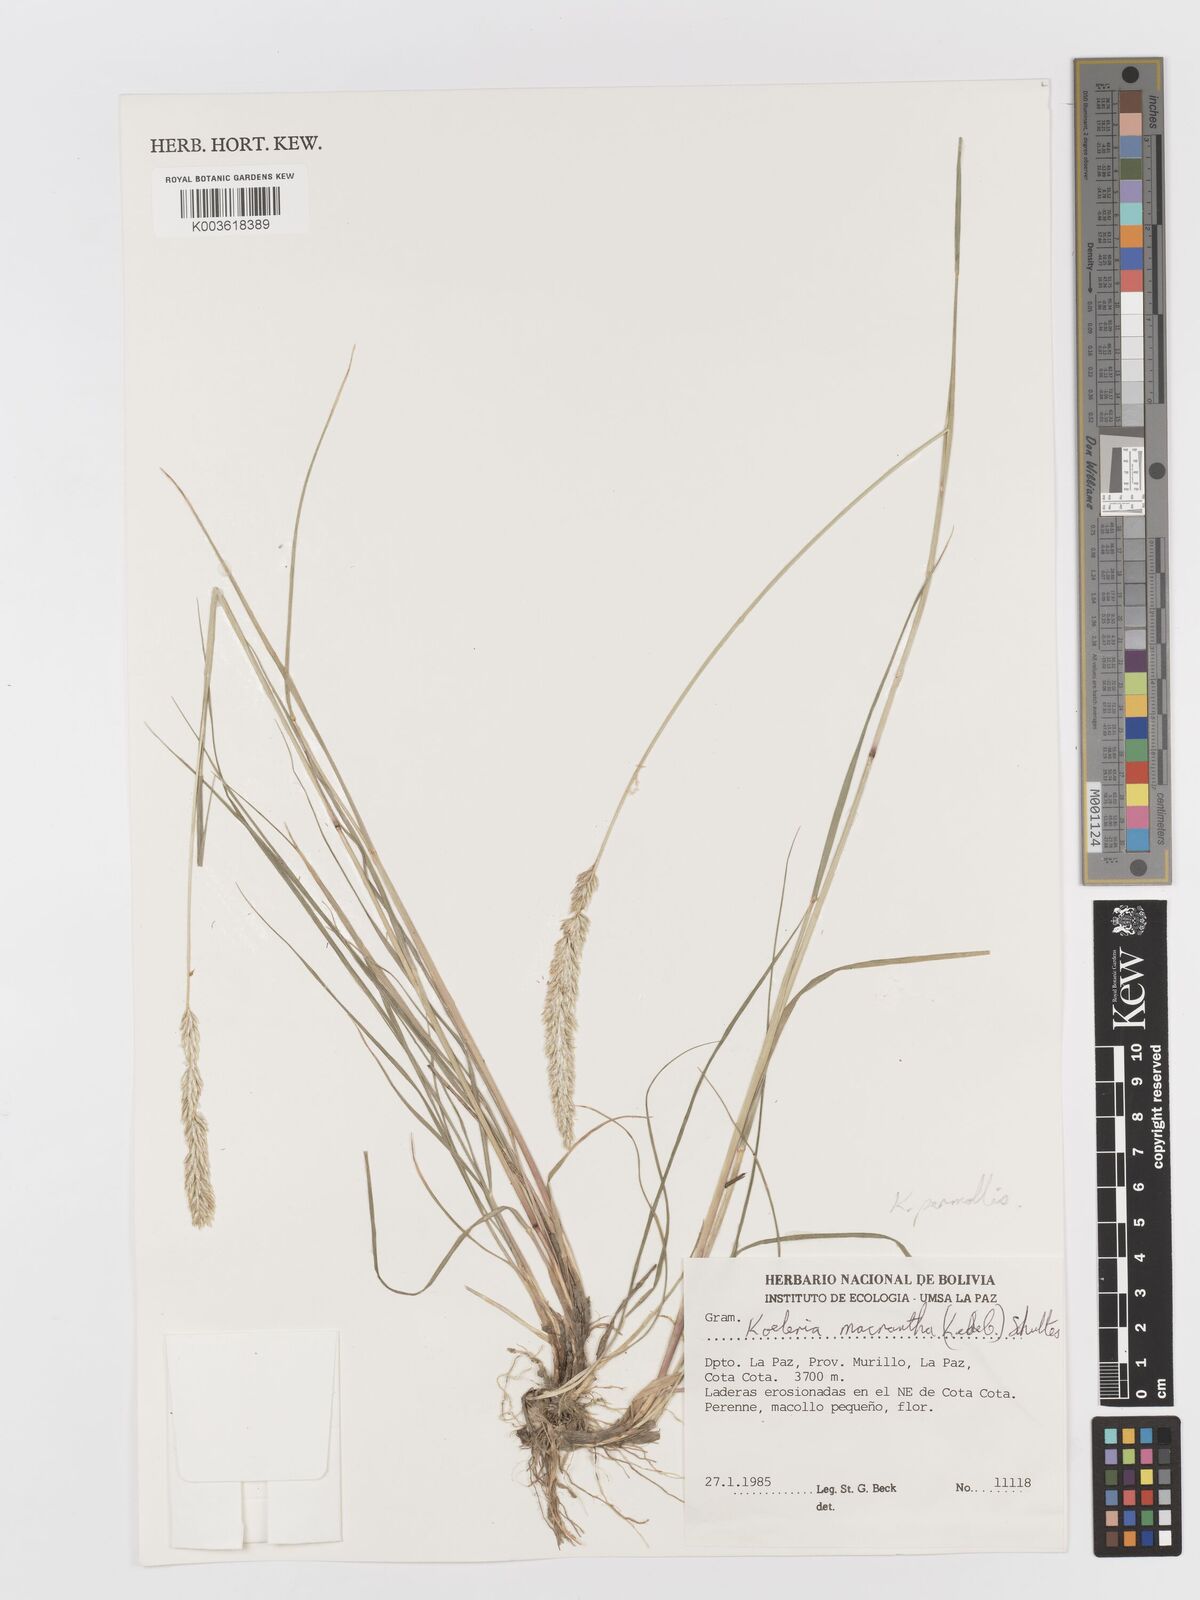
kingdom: Plantae
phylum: Tracheophyta
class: Liliopsida
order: Poales
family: Poaceae
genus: Koeleria
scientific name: Koeleria permollis
